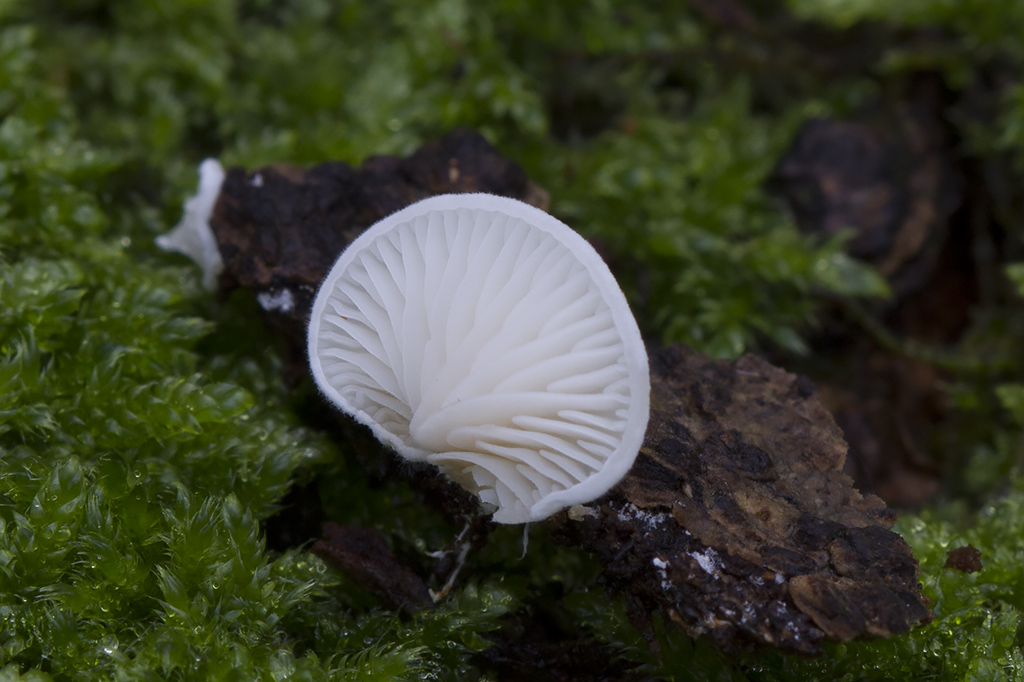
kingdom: Fungi
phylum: Basidiomycota
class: Agaricomycetes
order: Agaricales
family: Entolomataceae
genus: Clitopilus
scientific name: Clitopilus hobsonii
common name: Miller's oysterling
